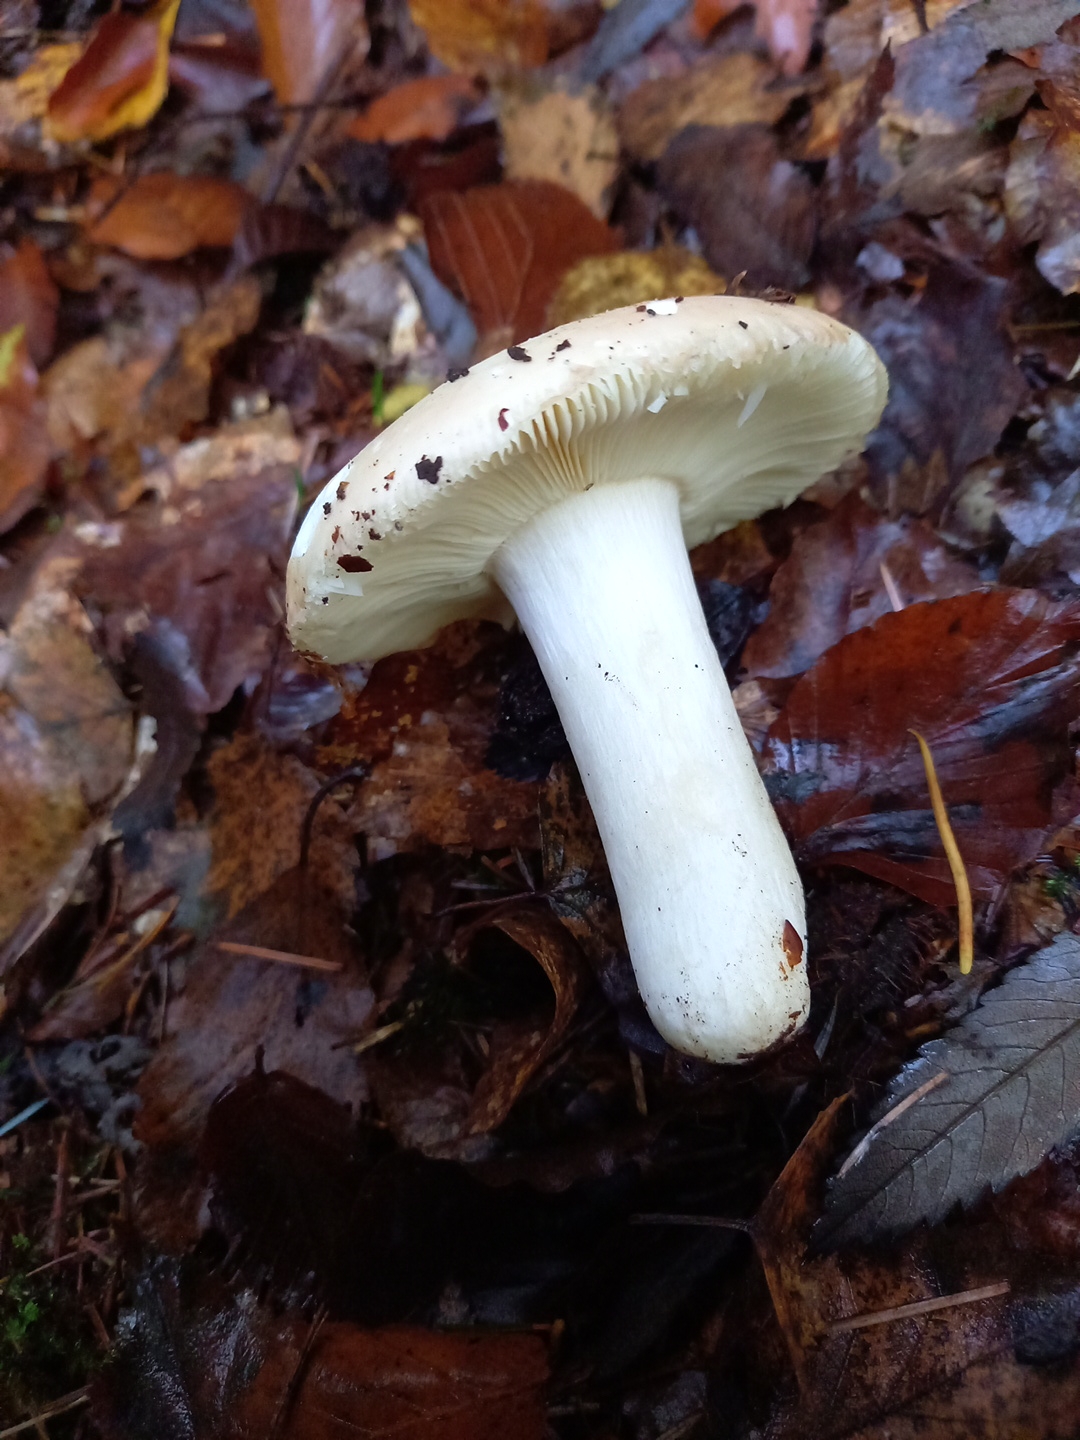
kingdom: Fungi
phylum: Basidiomycota
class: Agaricomycetes
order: Russulales
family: Russulaceae
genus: Russula
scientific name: Russula
